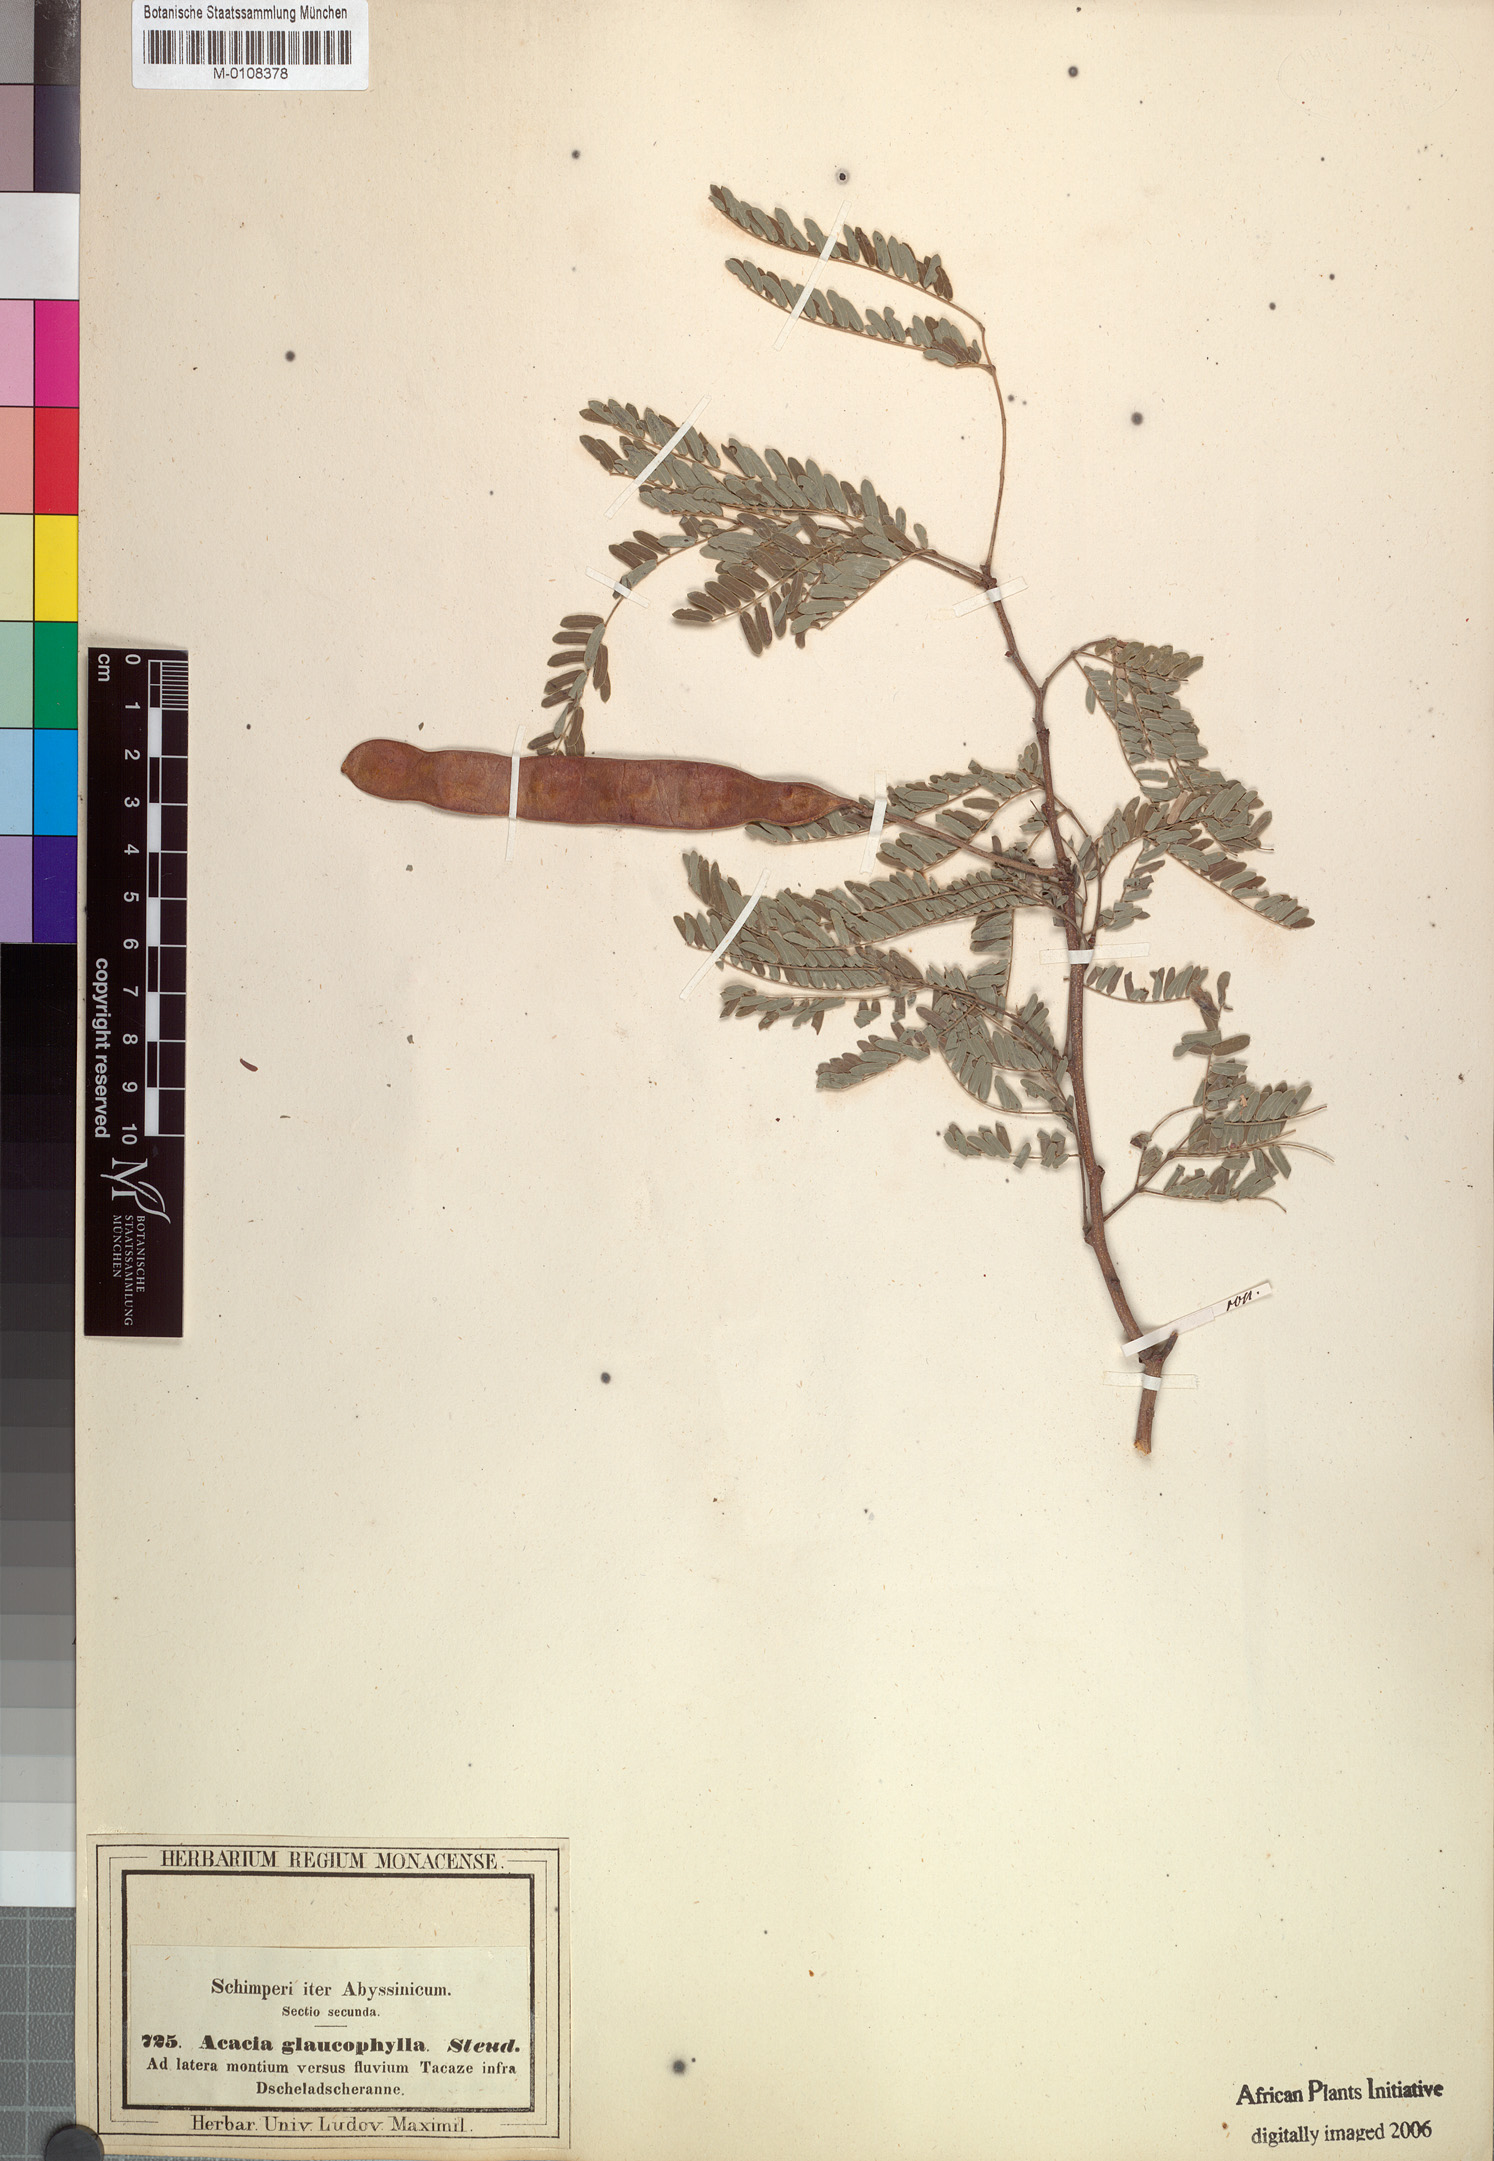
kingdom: Plantae
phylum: Tracheophyta
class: Magnoliopsida
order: Fabales
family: Fabaceae
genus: Senegalia
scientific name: Senegalia asak
